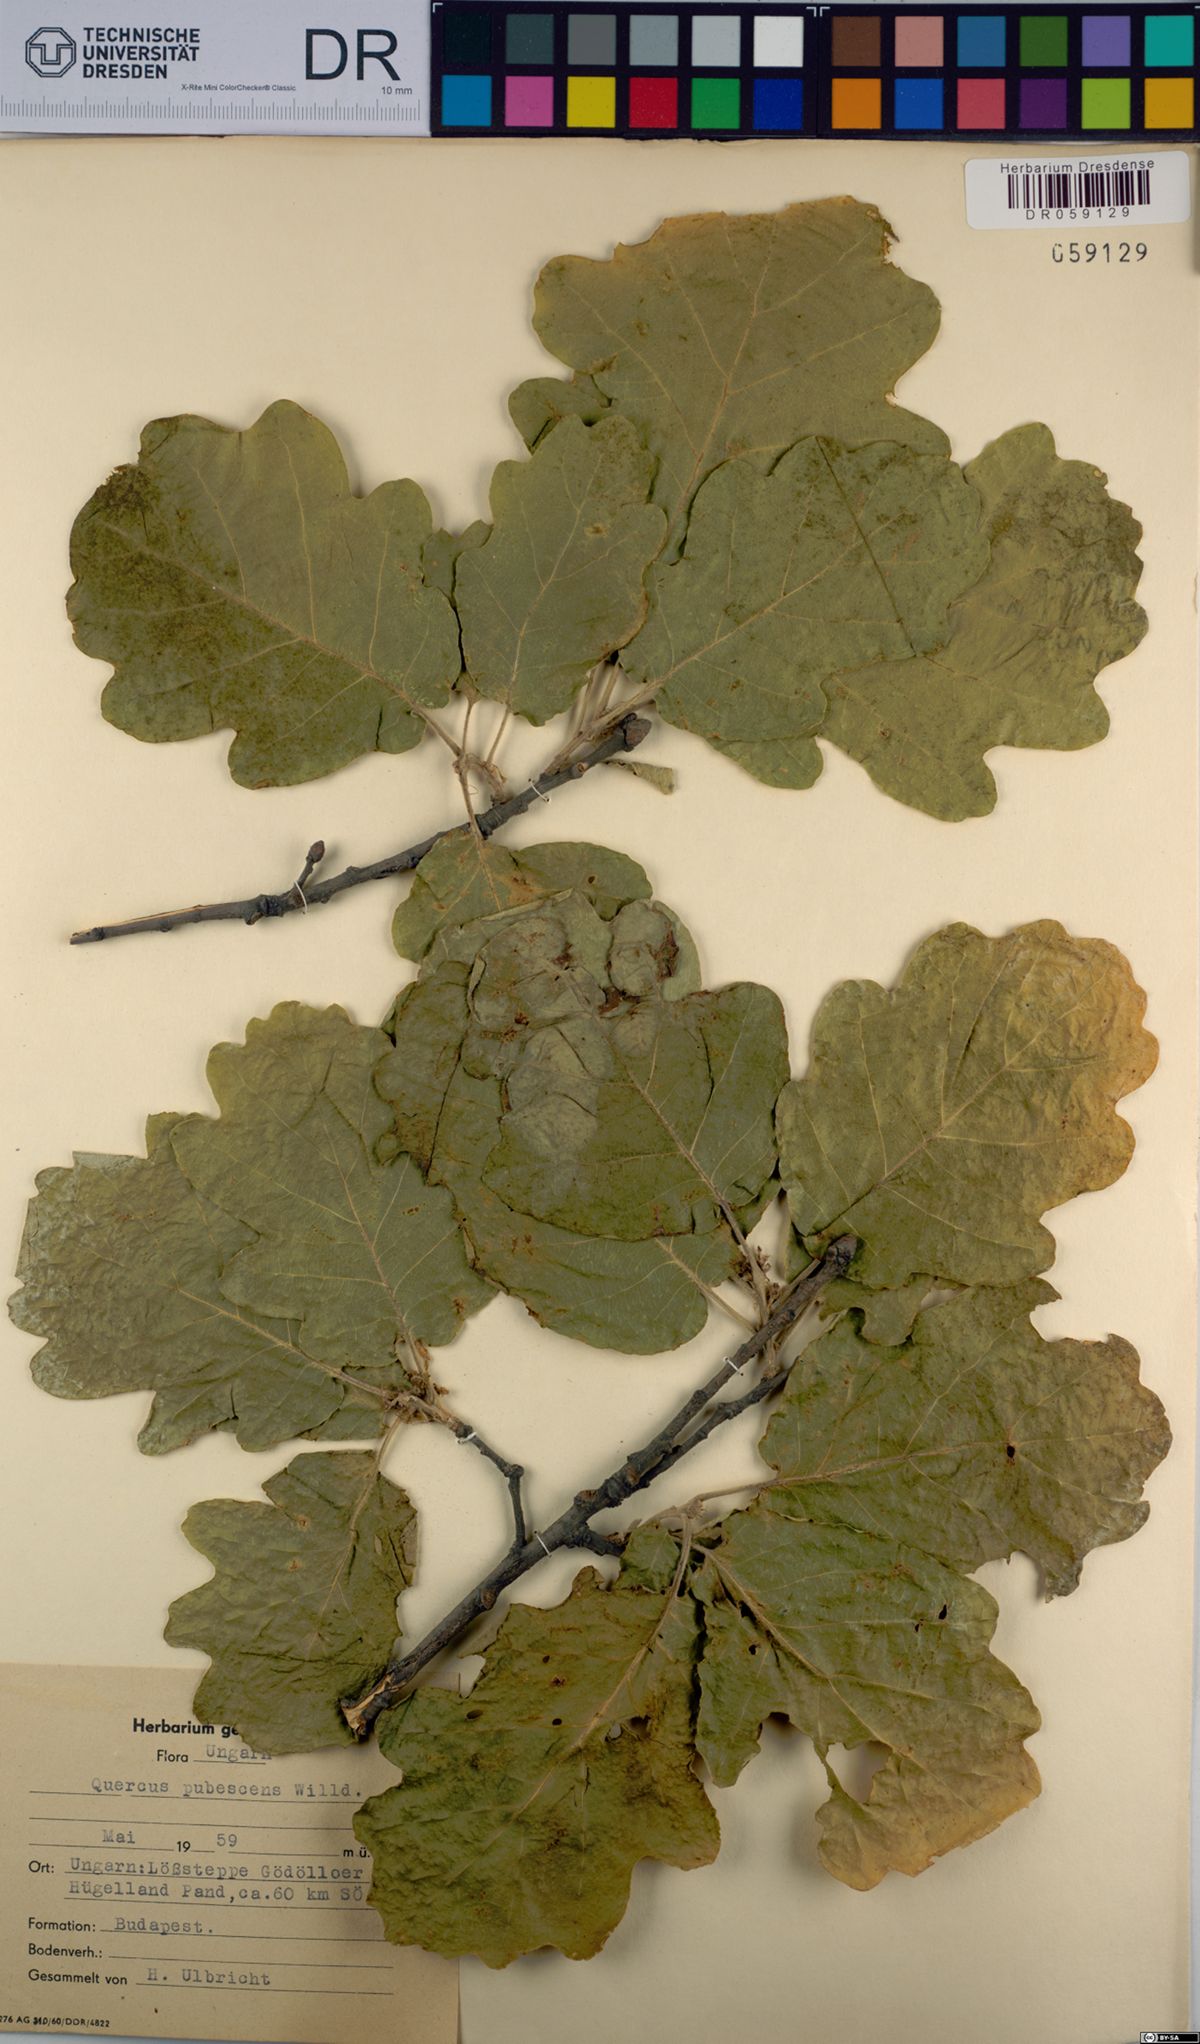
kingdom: Plantae
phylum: Tracheophyta
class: Magnoliopsida
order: Fagales
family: Fagaceae
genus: Quercus
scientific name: Quercus pubescens
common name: Downy oak
